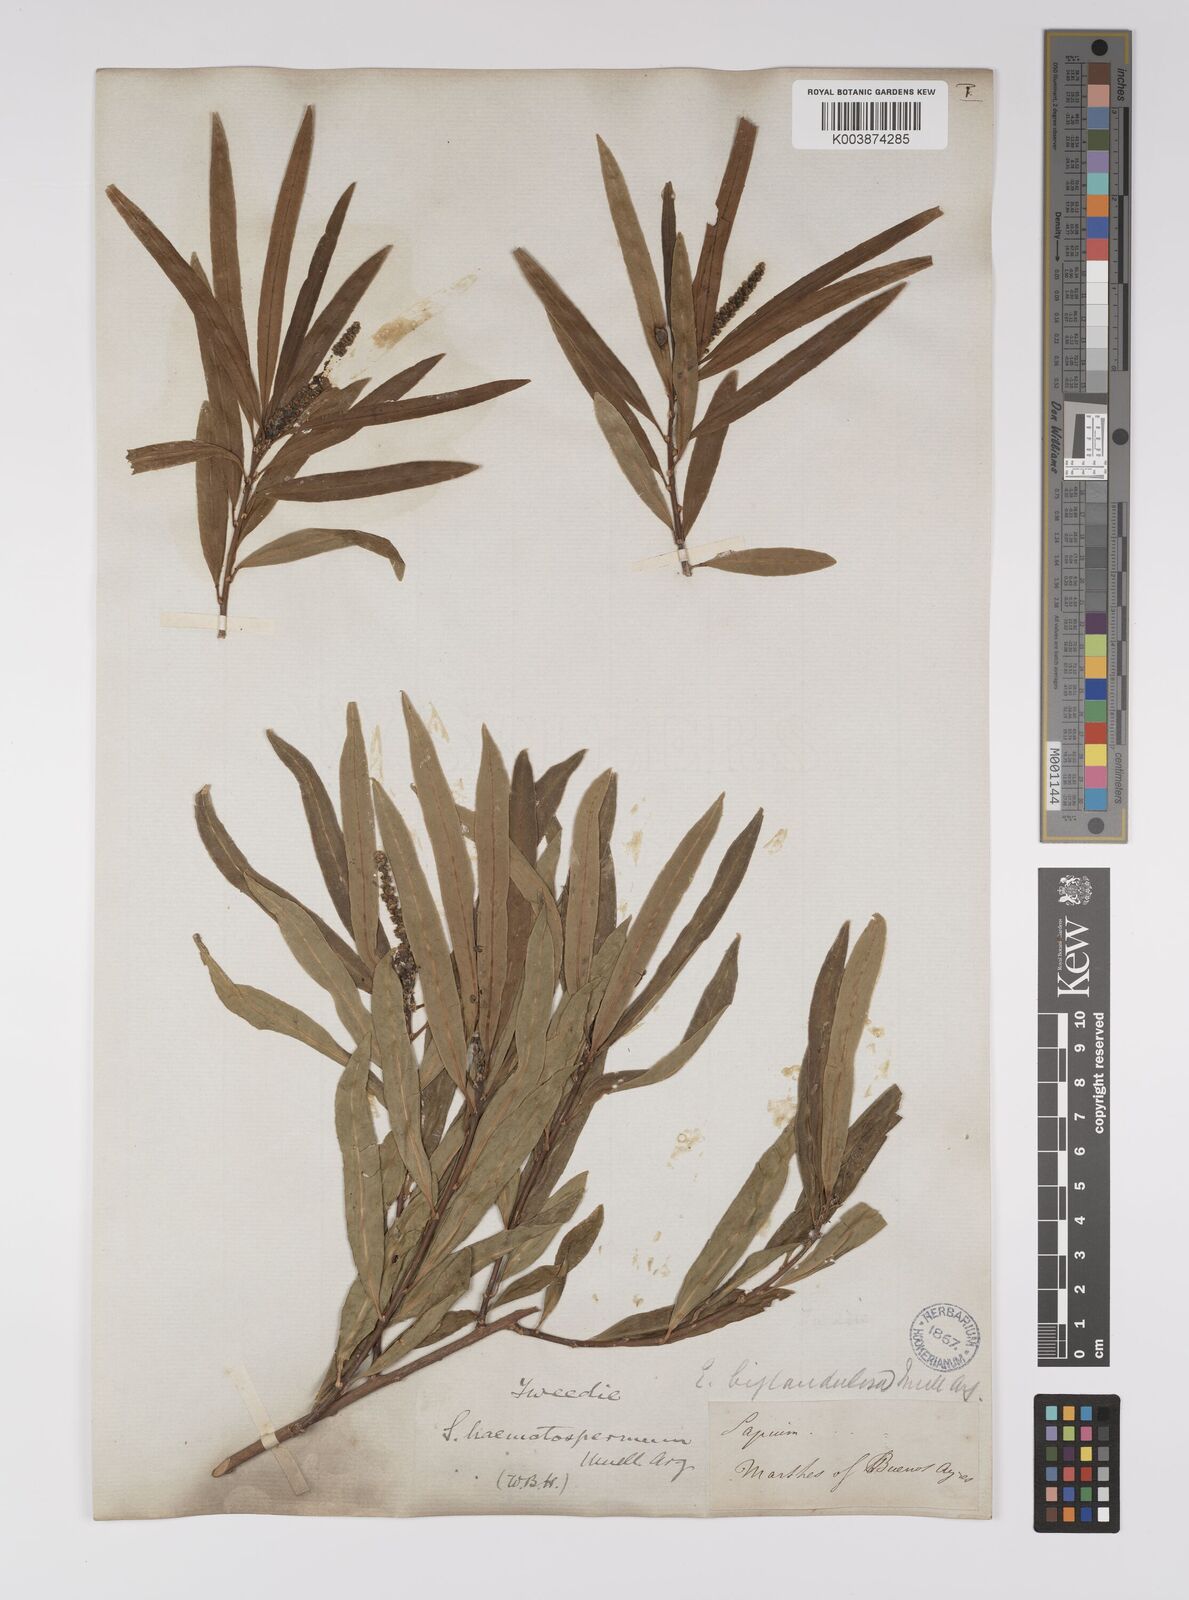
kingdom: Plantae
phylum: Tracheophyta
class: Magnoliopsida
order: Malpighiales
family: Euphorbiaceae
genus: Sapium
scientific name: Sapium haematospermum
